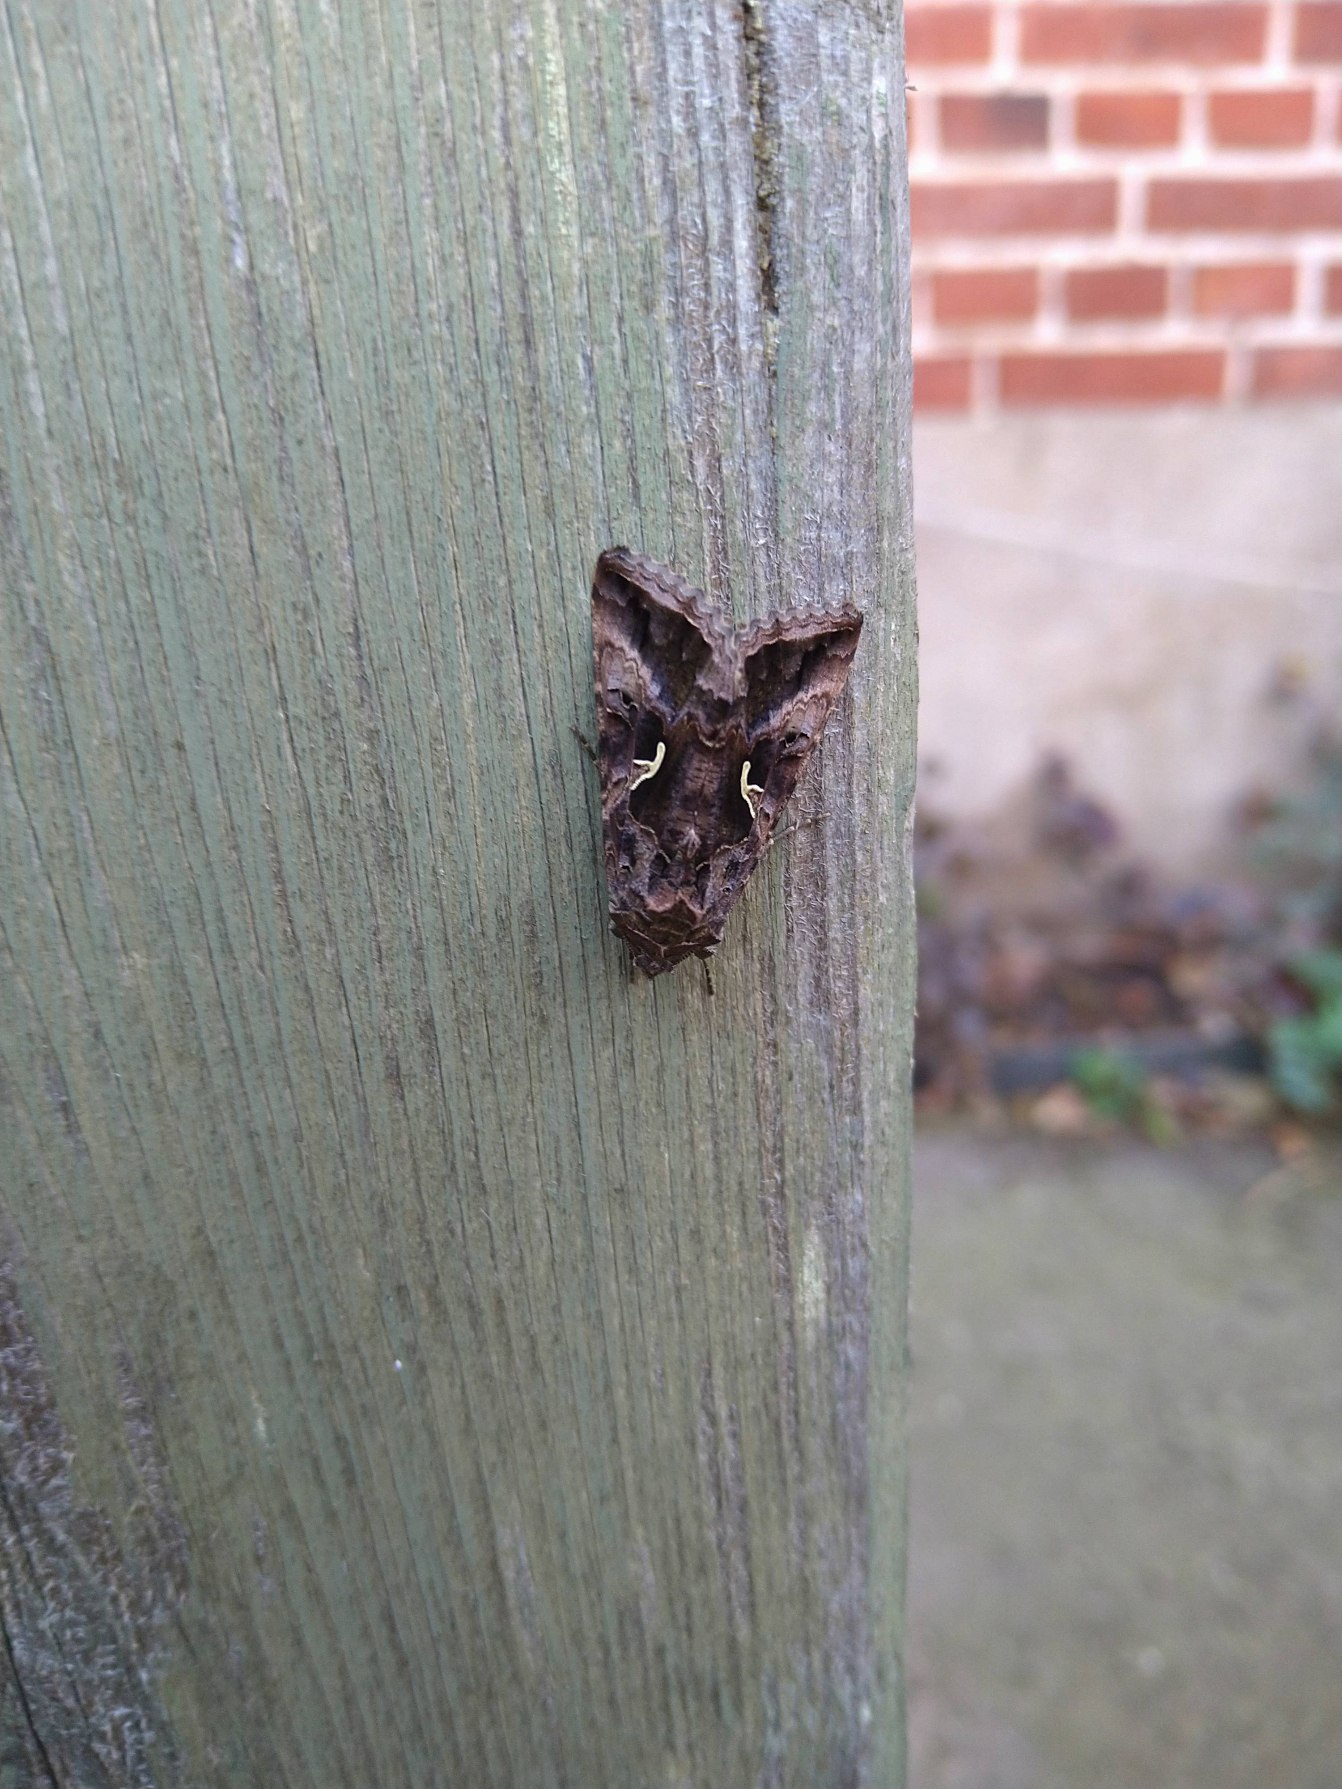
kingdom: Animalia
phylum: Arthropoda
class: Insecta
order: Lepidoptera
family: Noctuidae
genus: Autographa
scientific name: Autographa gamma
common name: Gammaugle
